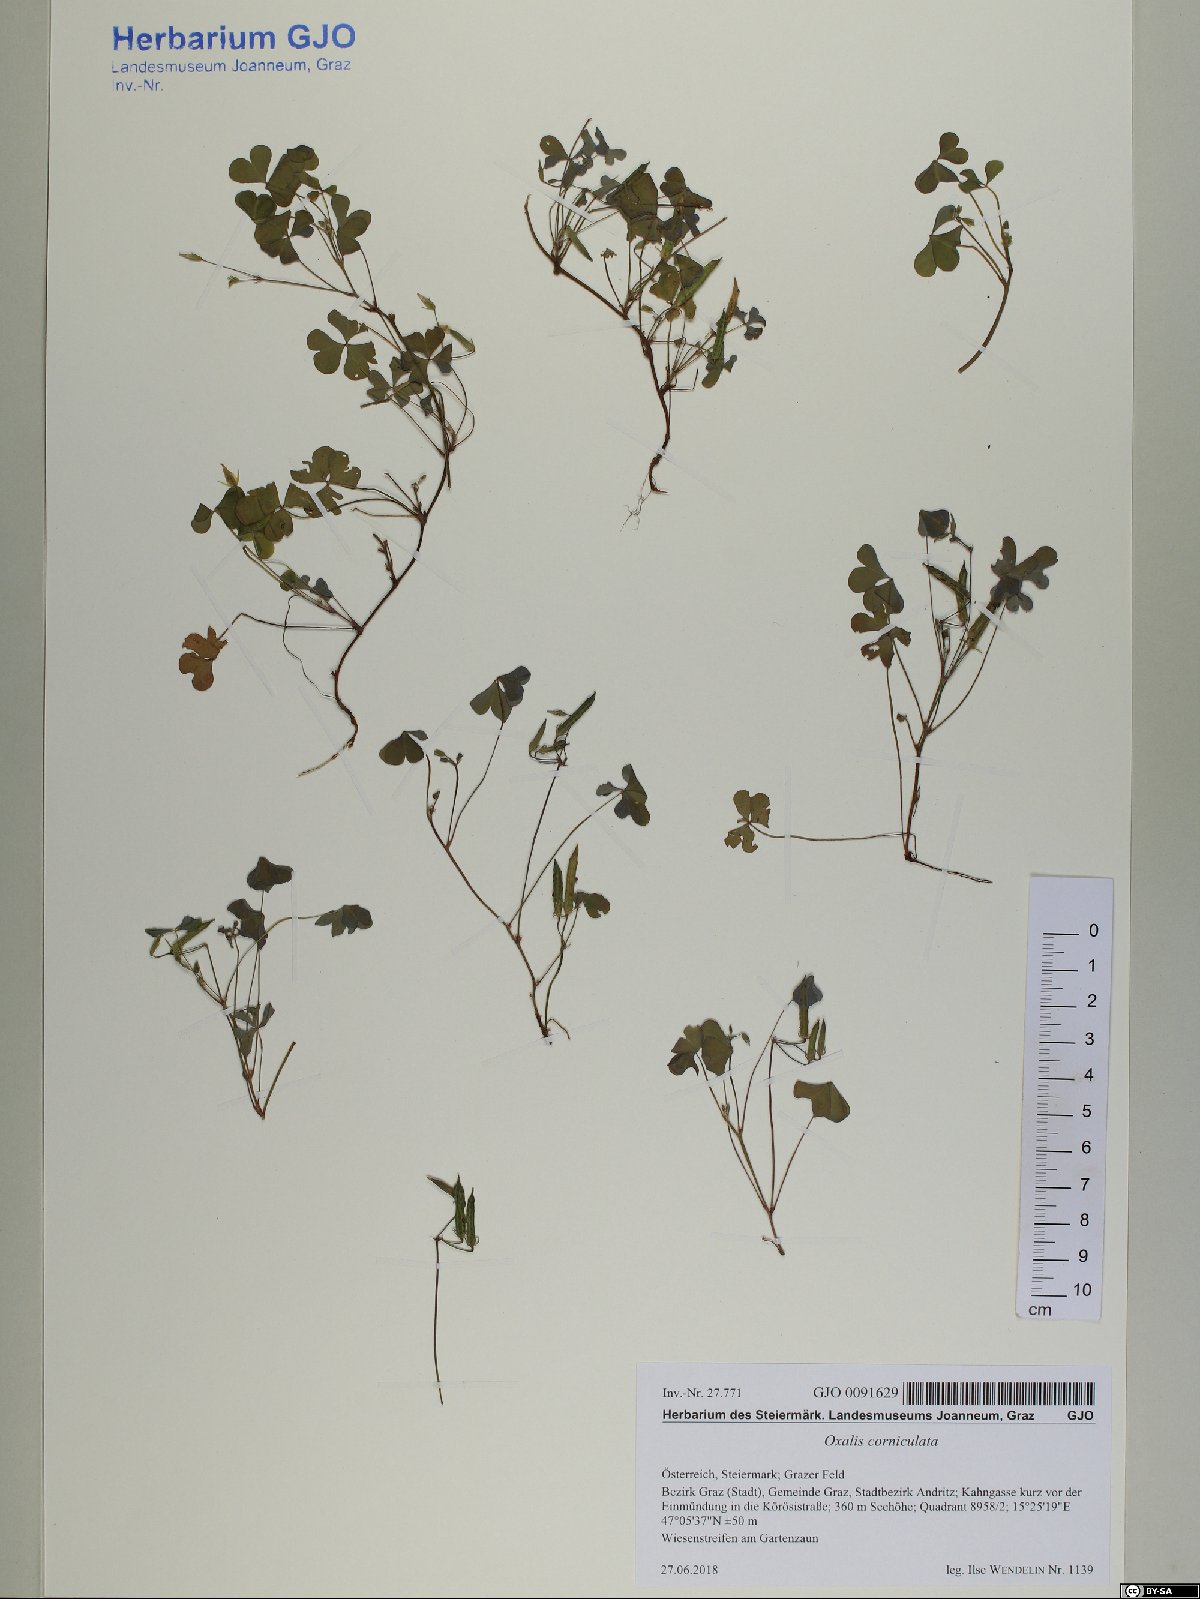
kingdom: Plantae
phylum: Tracheophyta
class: Magnoliopsida
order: Oxalidales
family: Oxalidaceae
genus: Oxalis
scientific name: Oxalis corniculata
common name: Procumbent yellow-sorrel
